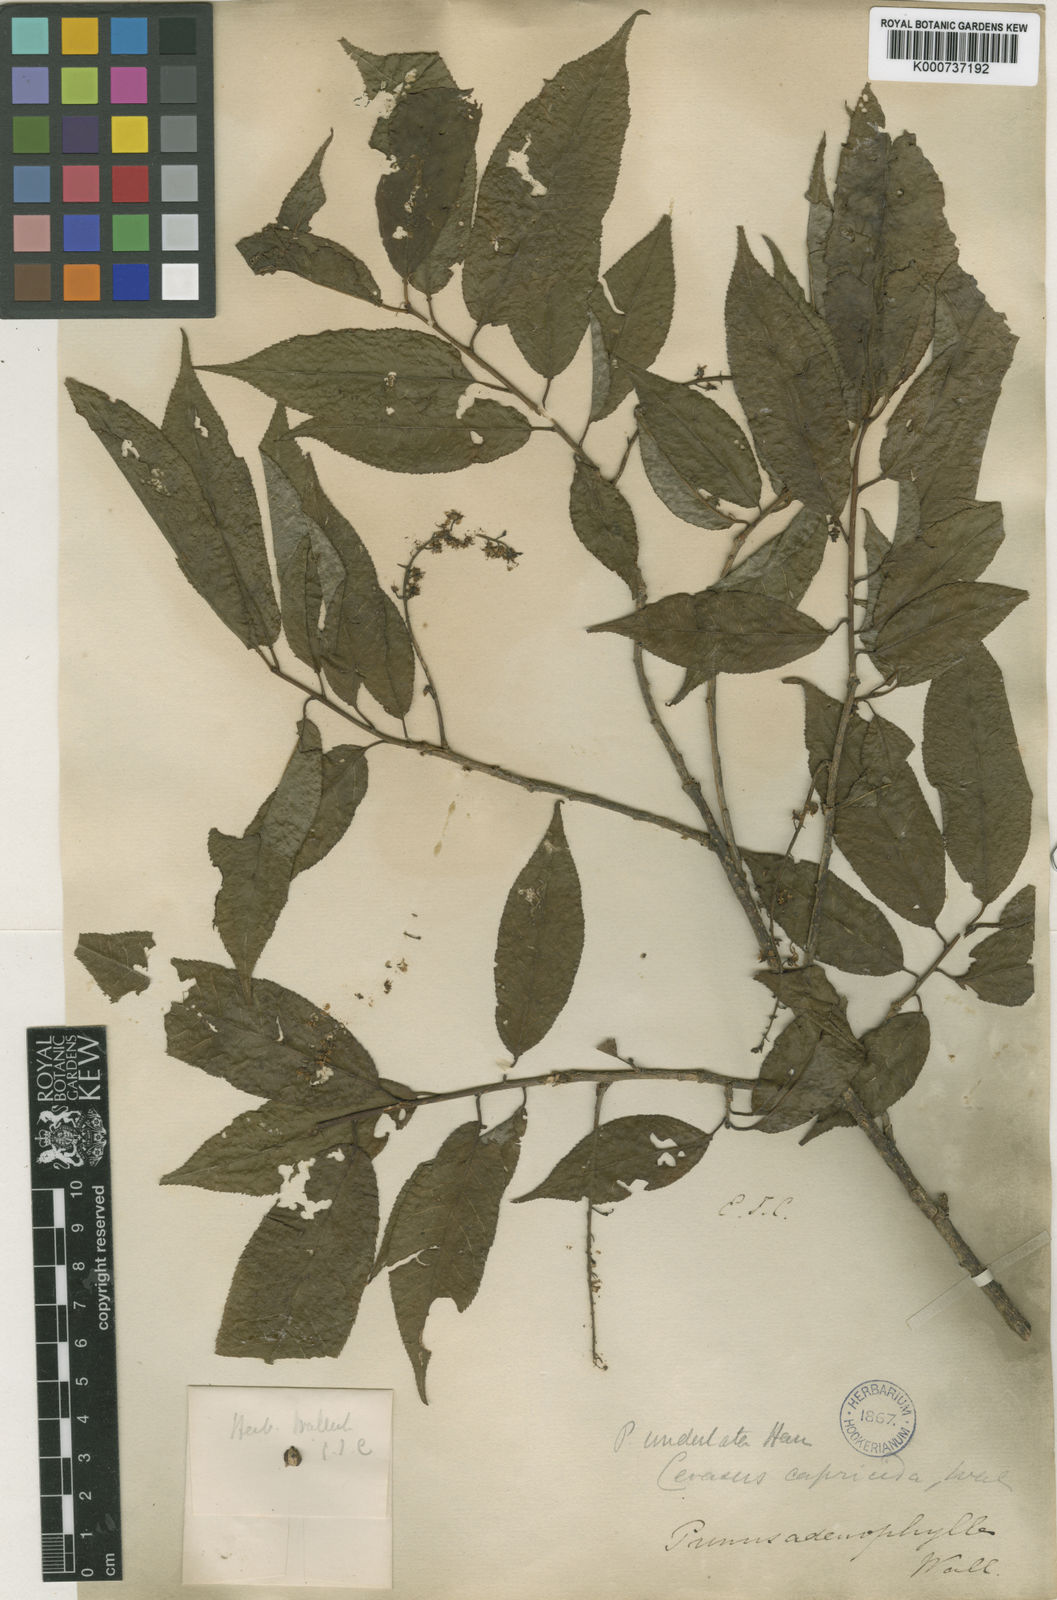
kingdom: Plantae
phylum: Tracheophyta
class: Magnoliopsida
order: Rosales
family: Rosaceae
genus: Prunus
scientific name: Prunus undulata
